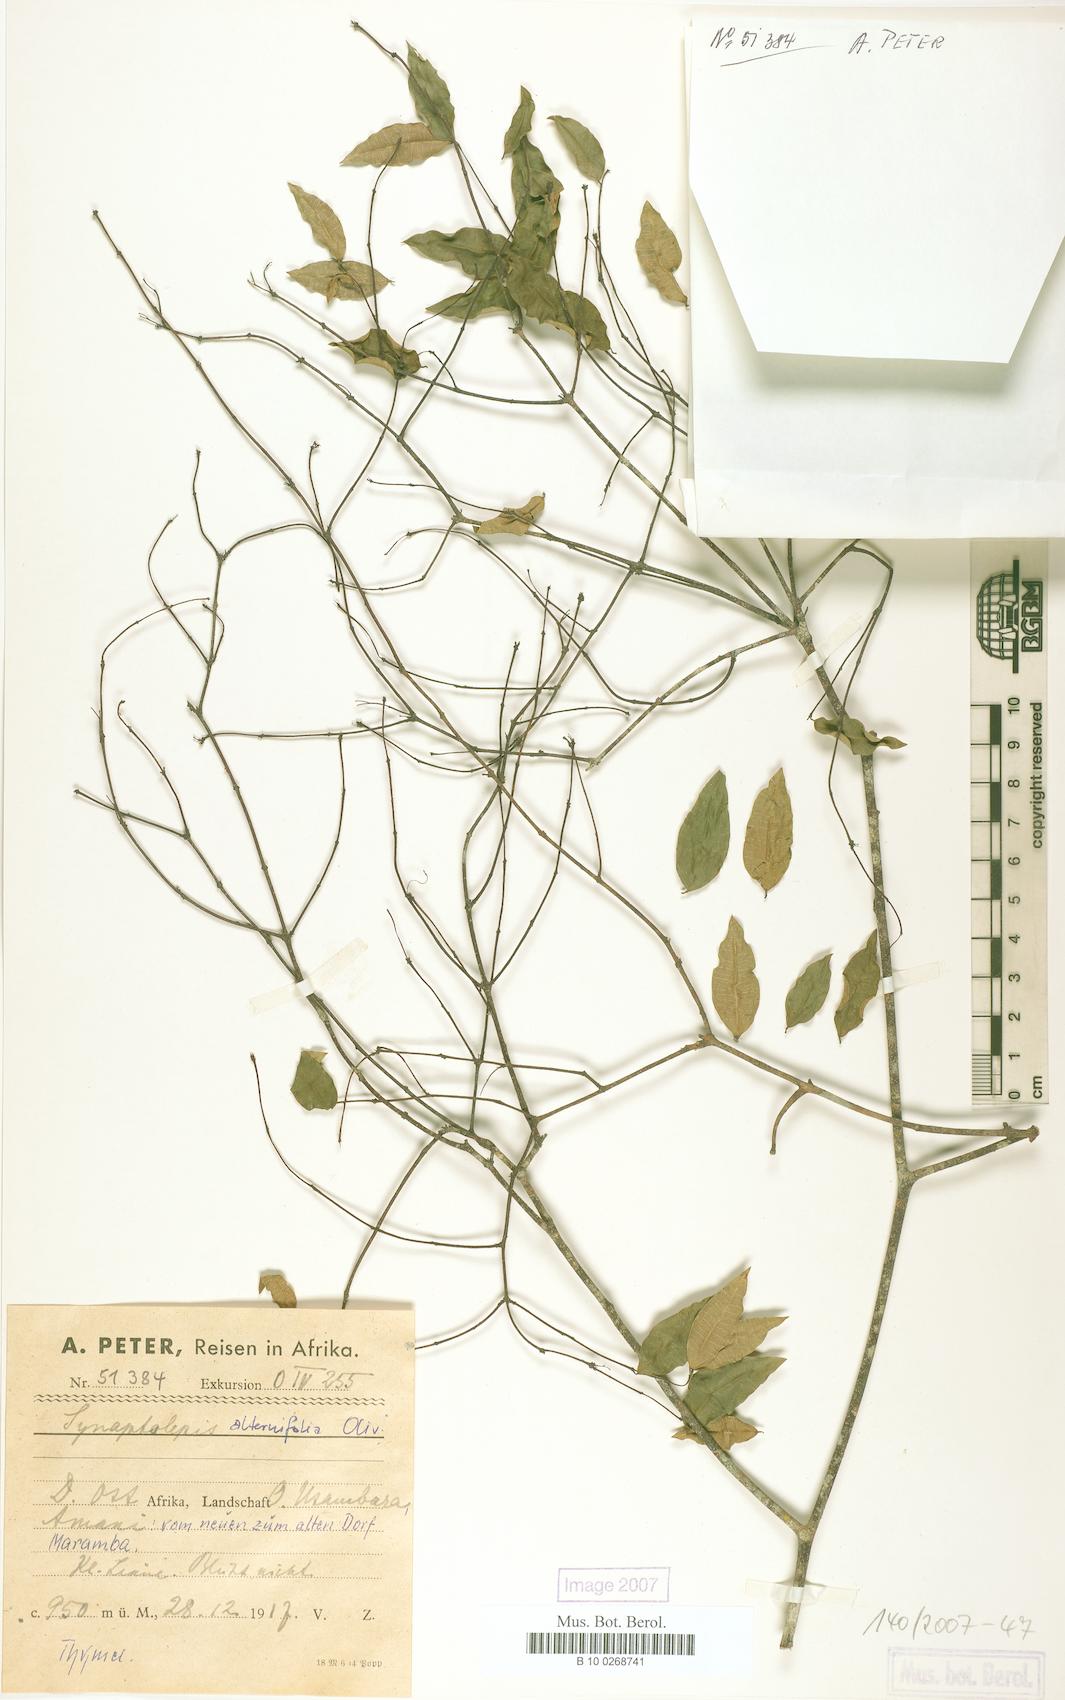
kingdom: Plantae
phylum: Tracheophyta
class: Magnoliopsida
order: Malvales
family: Thymelaeaceae
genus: Synaptolepis
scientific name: Synaptolepis alternifolia
